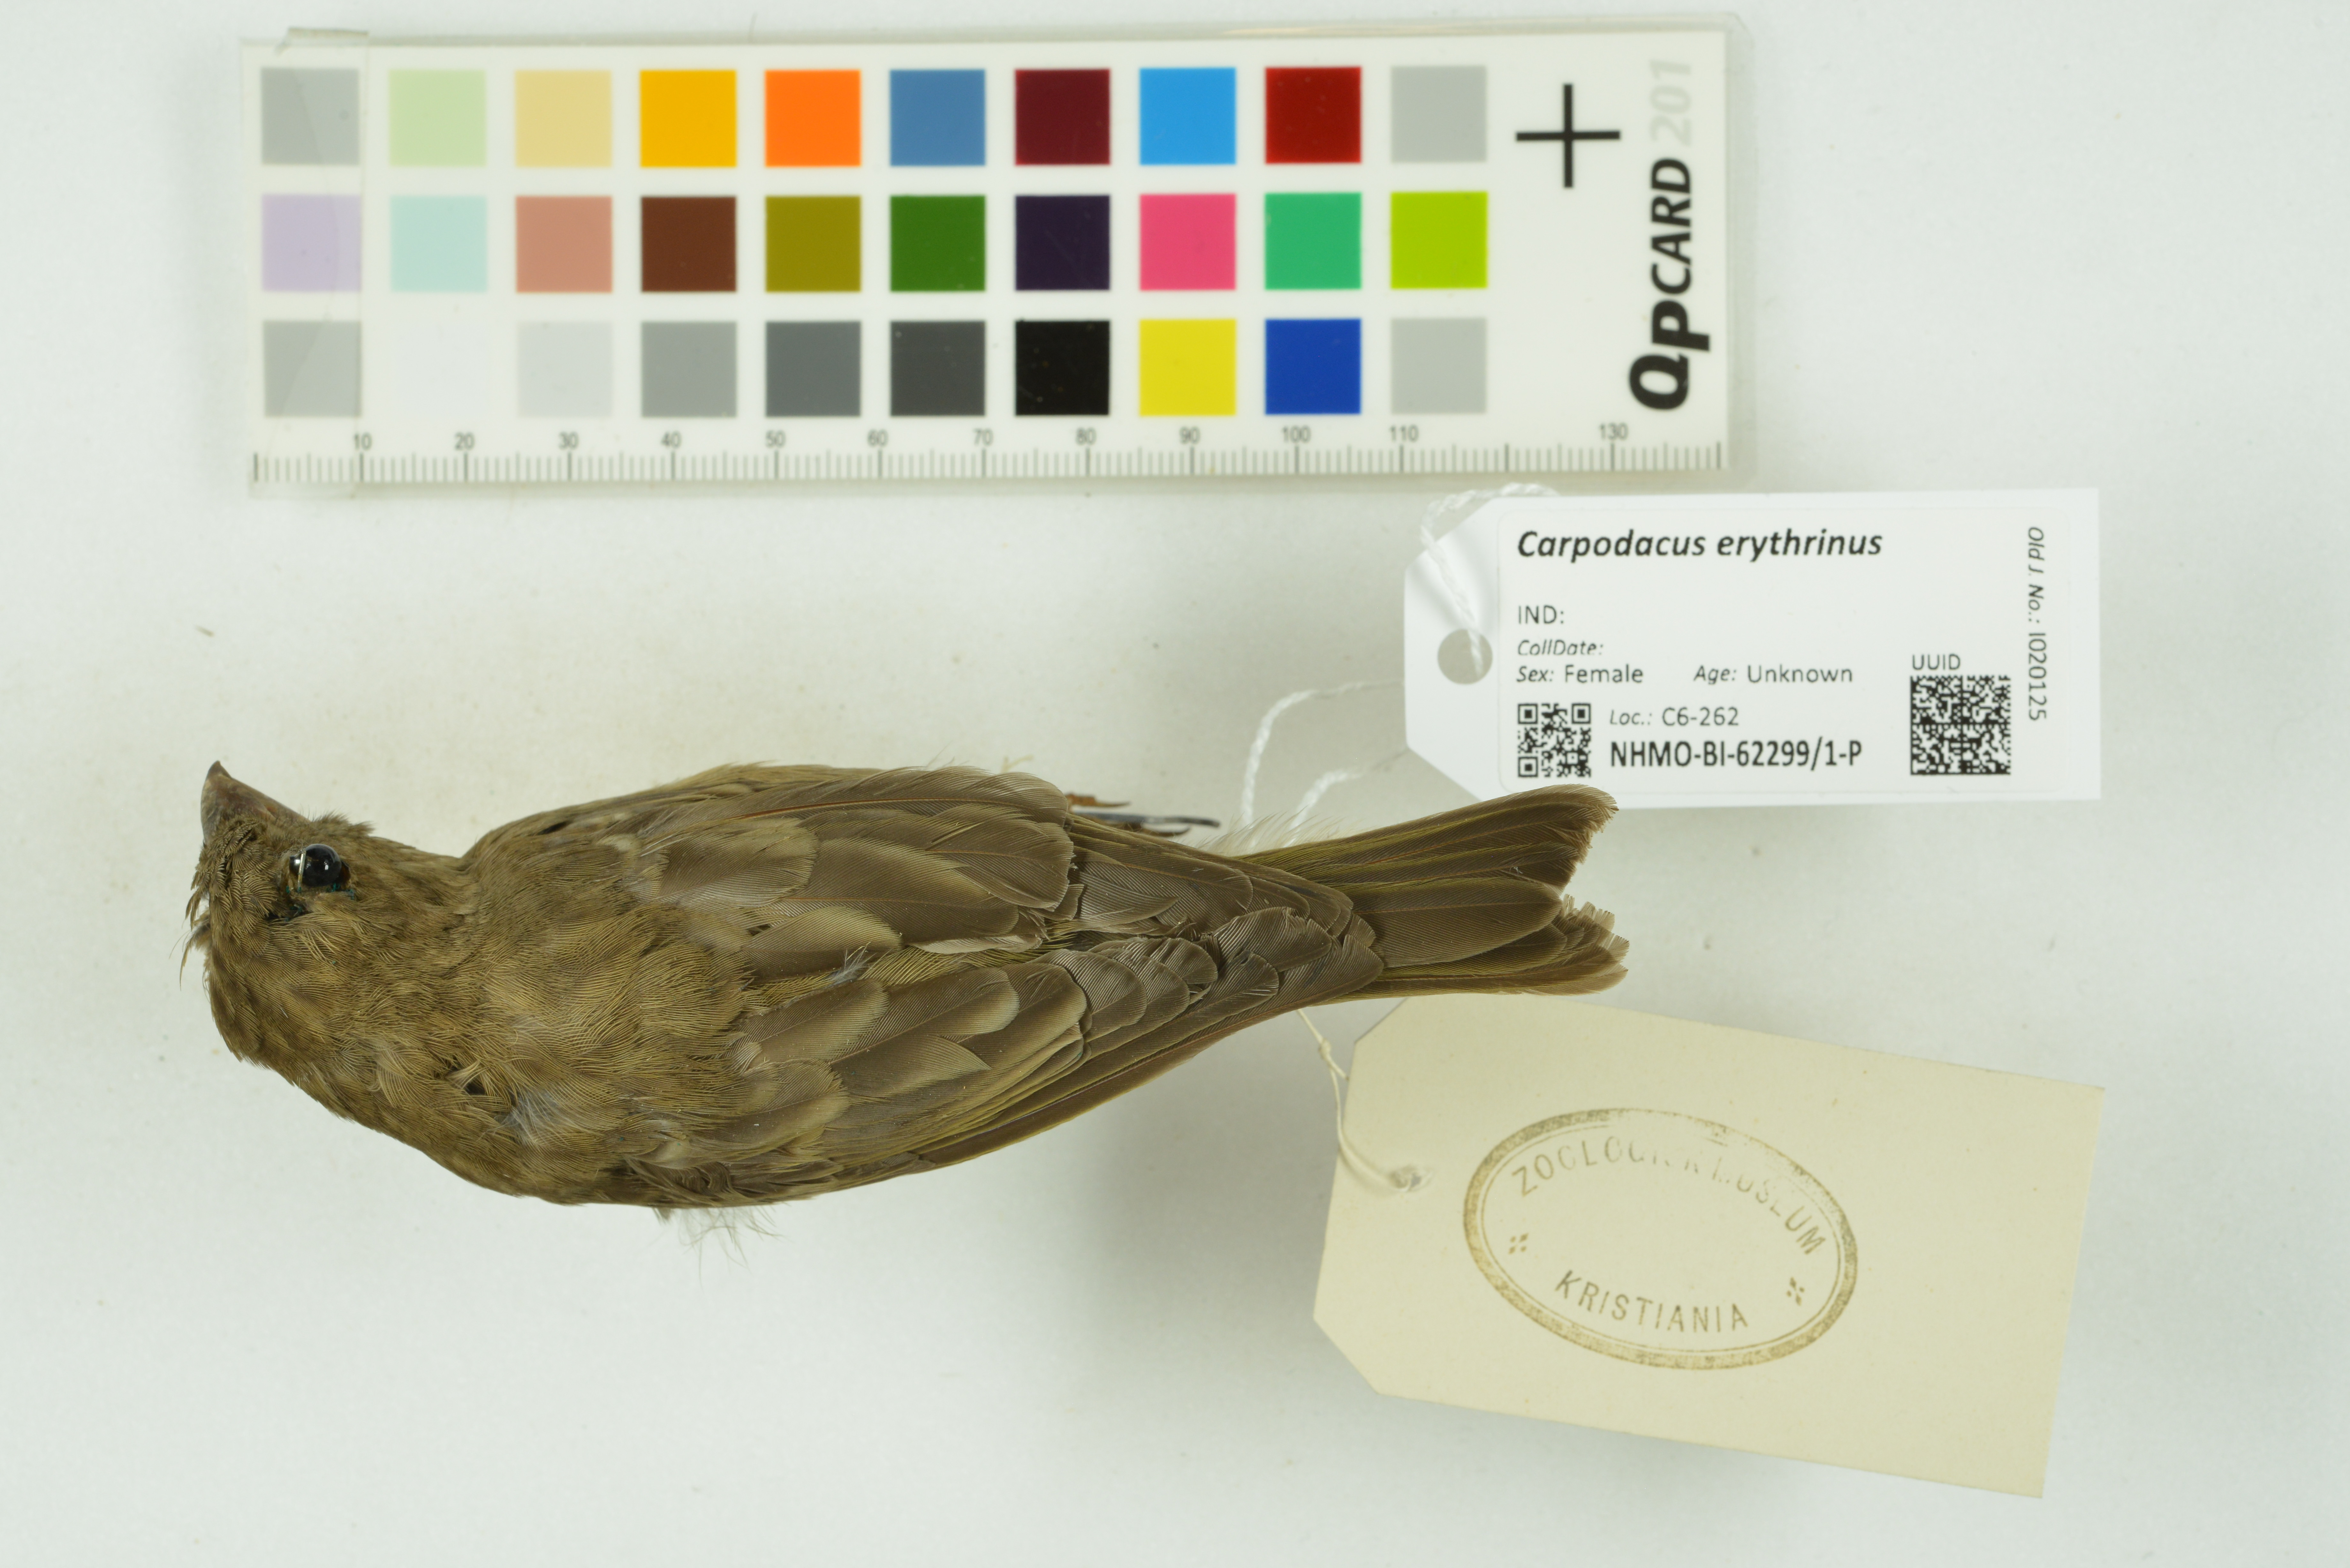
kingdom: Animalia
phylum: Chordata
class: Aves
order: Passeriformes
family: Fringillidae
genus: Carpodacus
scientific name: Carpodacus erythrinus
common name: Common rosefinch
